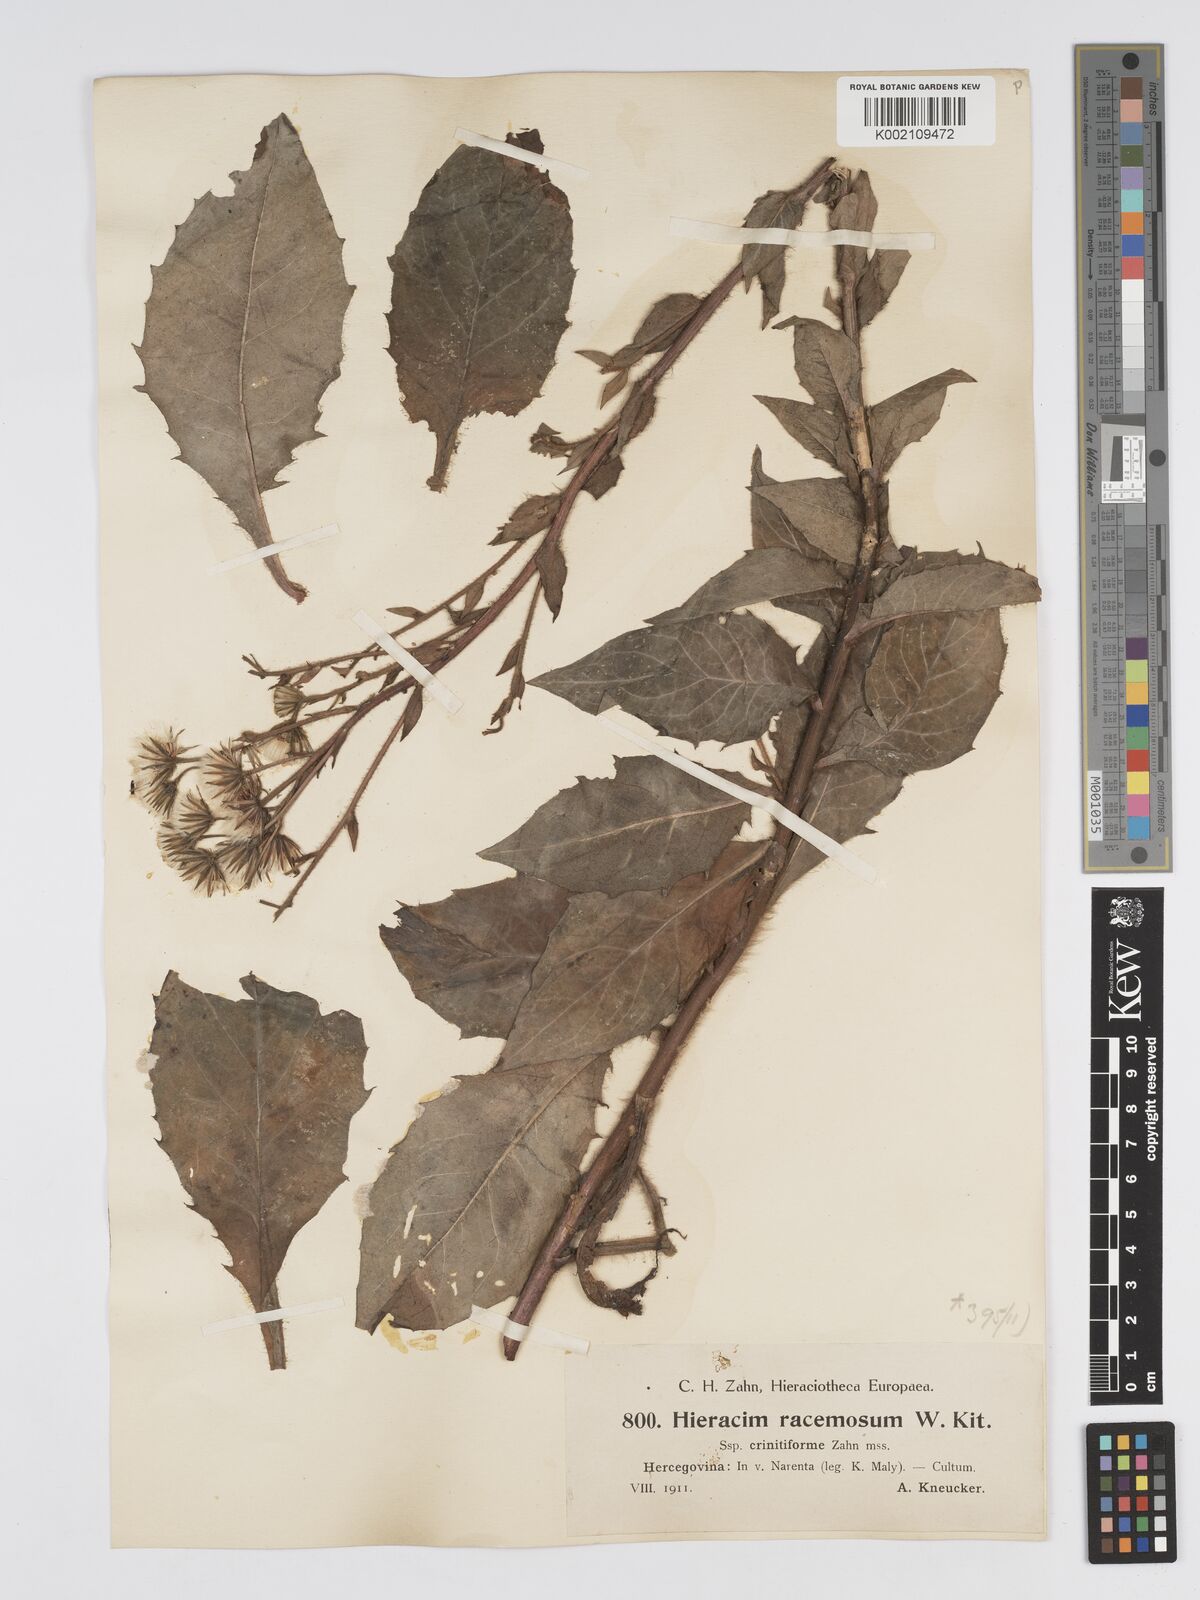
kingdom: Plantae
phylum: Tracheophyta
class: Magnoliopsida
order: Asterales
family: Asteraceae
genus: Hieracium
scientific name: Hieracium racemosum
